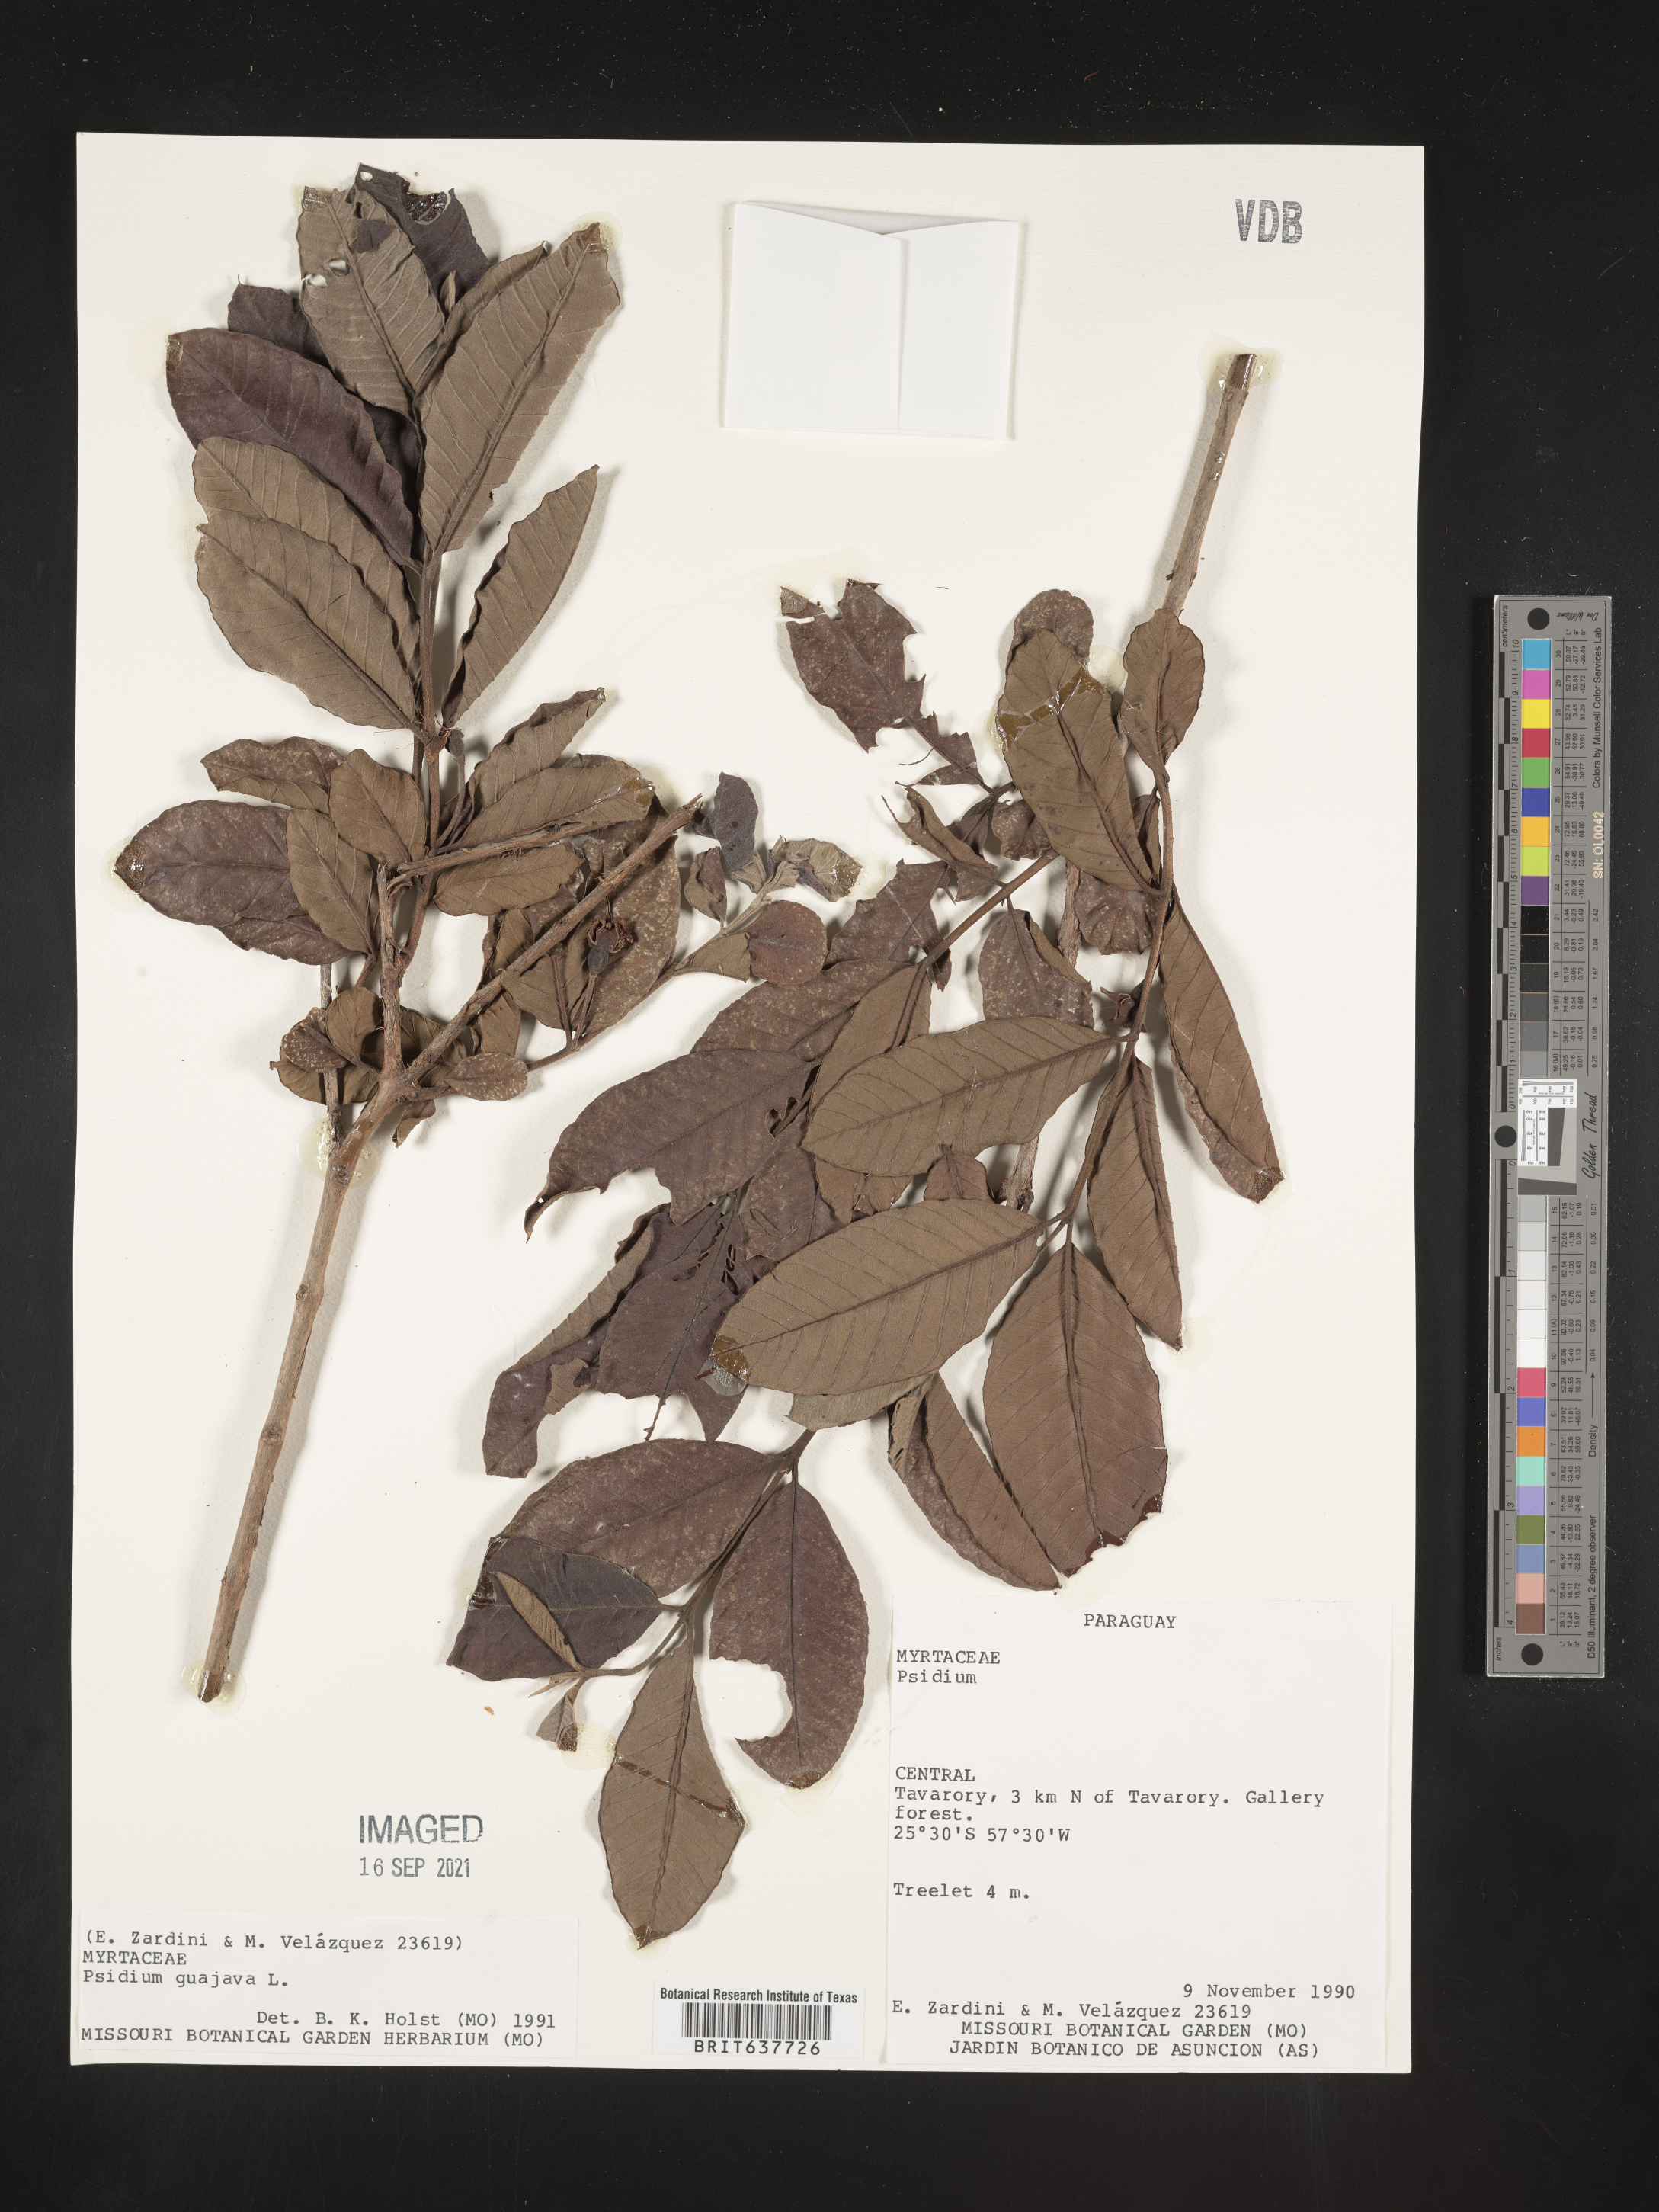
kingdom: Plantae
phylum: Tracheophyta
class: Magnoliopsida
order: Myrtales
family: Myrtaceae
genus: Psidium
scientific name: Psidium
